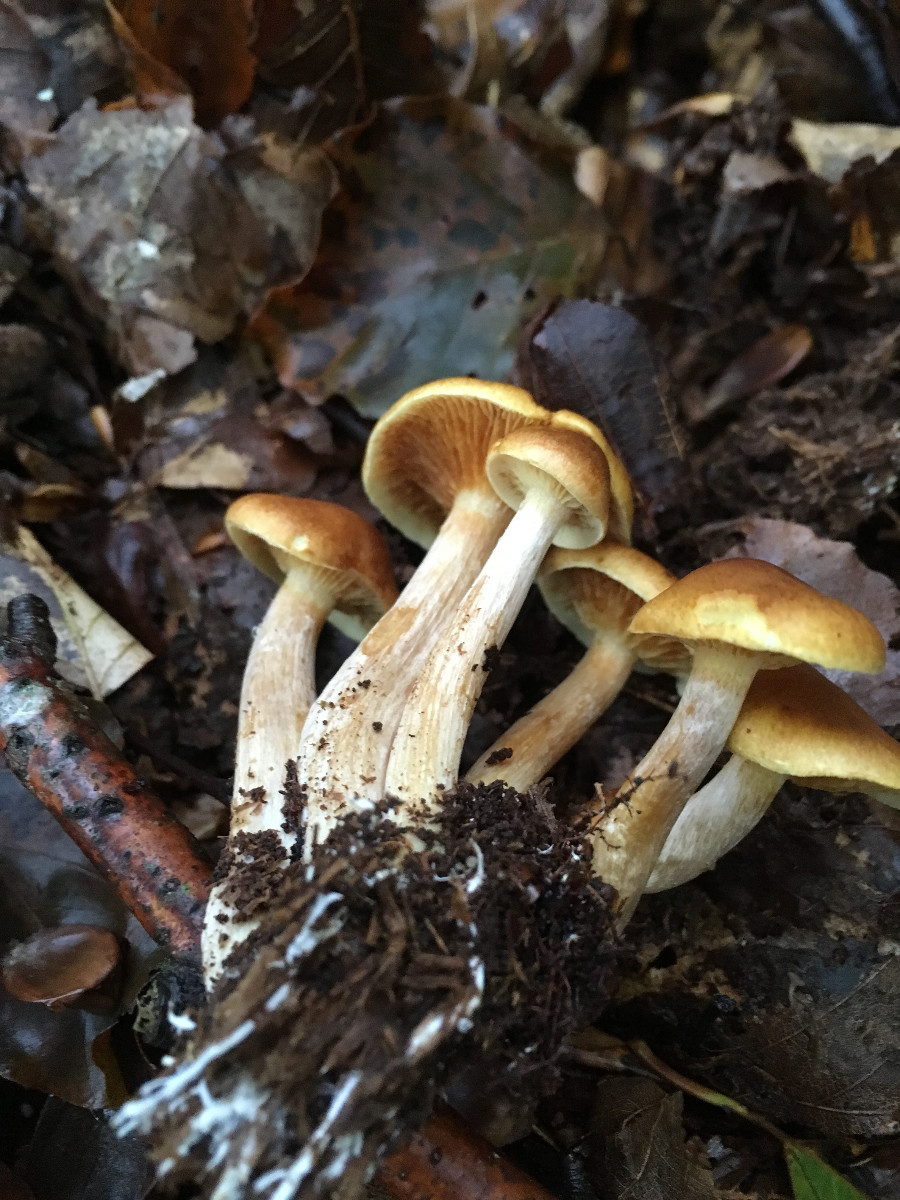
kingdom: Fungi
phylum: Basidiomycota
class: Agaricomycetes
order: Agaricales
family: Hymenogastraceae
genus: Gymnopilus
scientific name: Gymnopilus penetrans
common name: plettet flammehat
